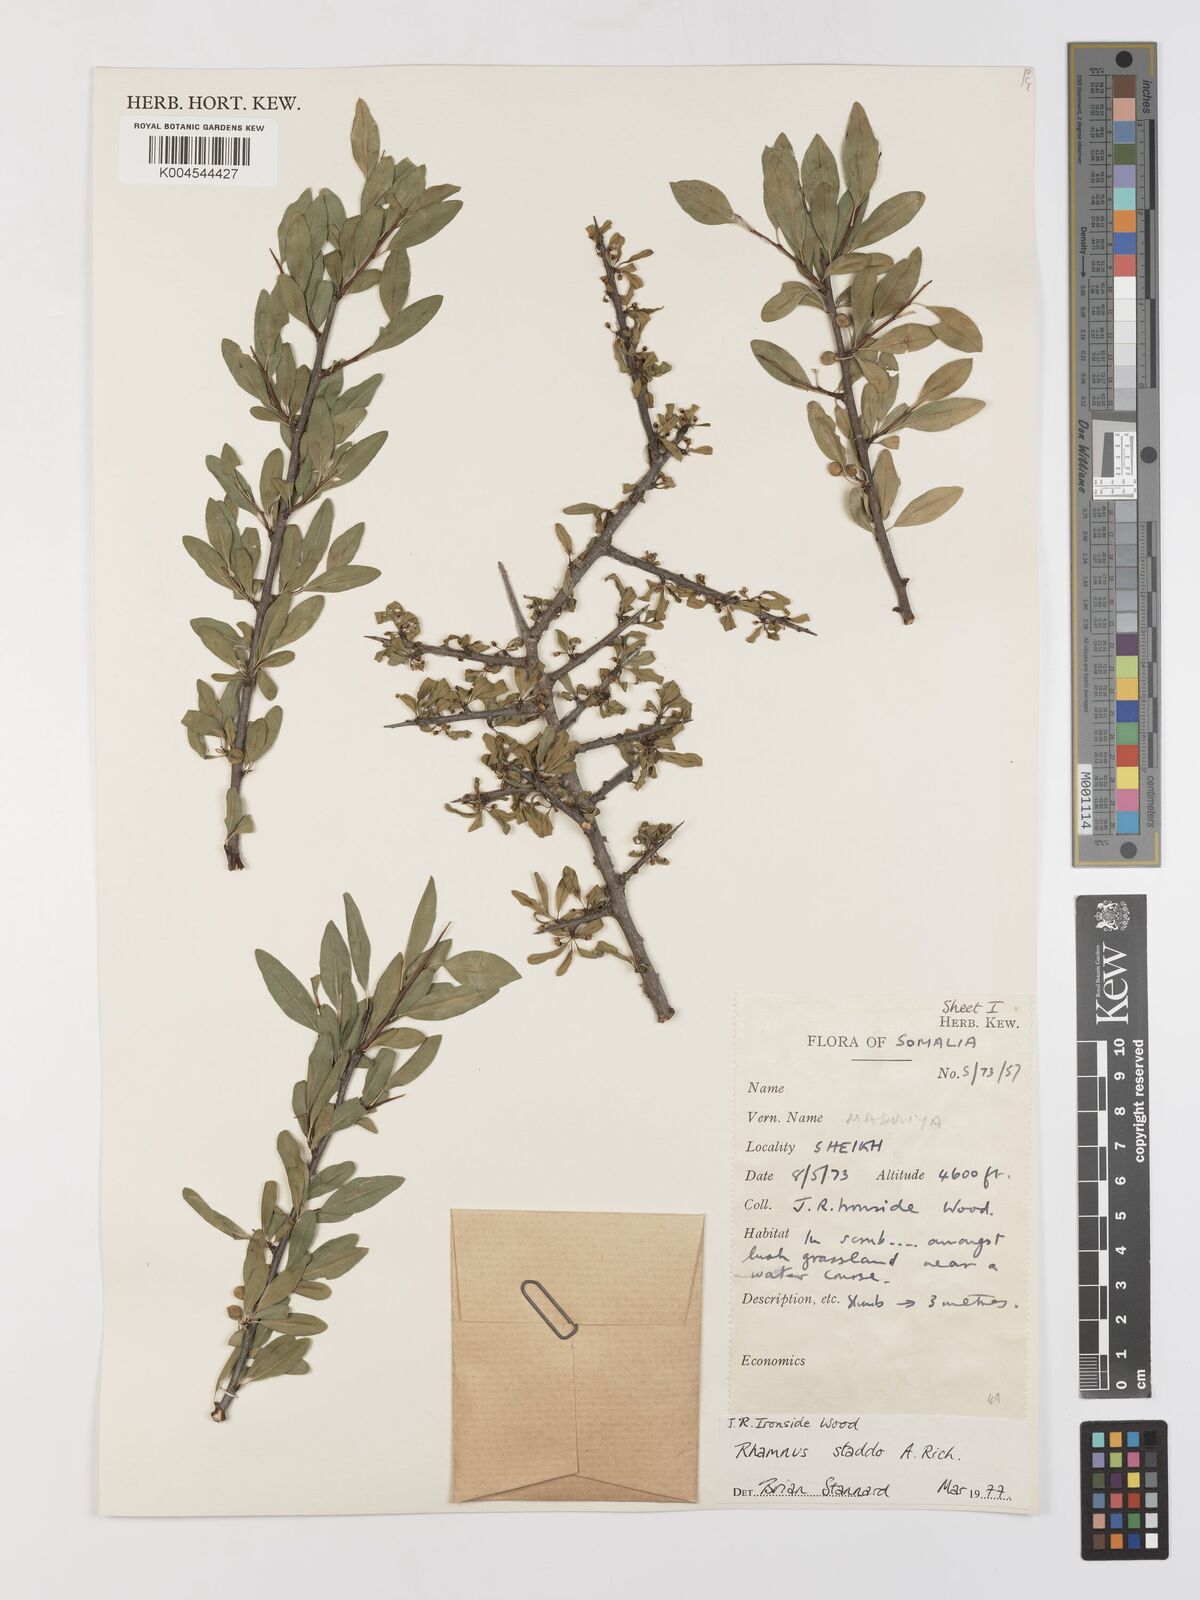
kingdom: Plantae
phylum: Tracheophyta
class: Magnoliopsida
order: Rosales
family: Rhamnaceae
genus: Rhamnus
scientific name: Rhamnus staddo
